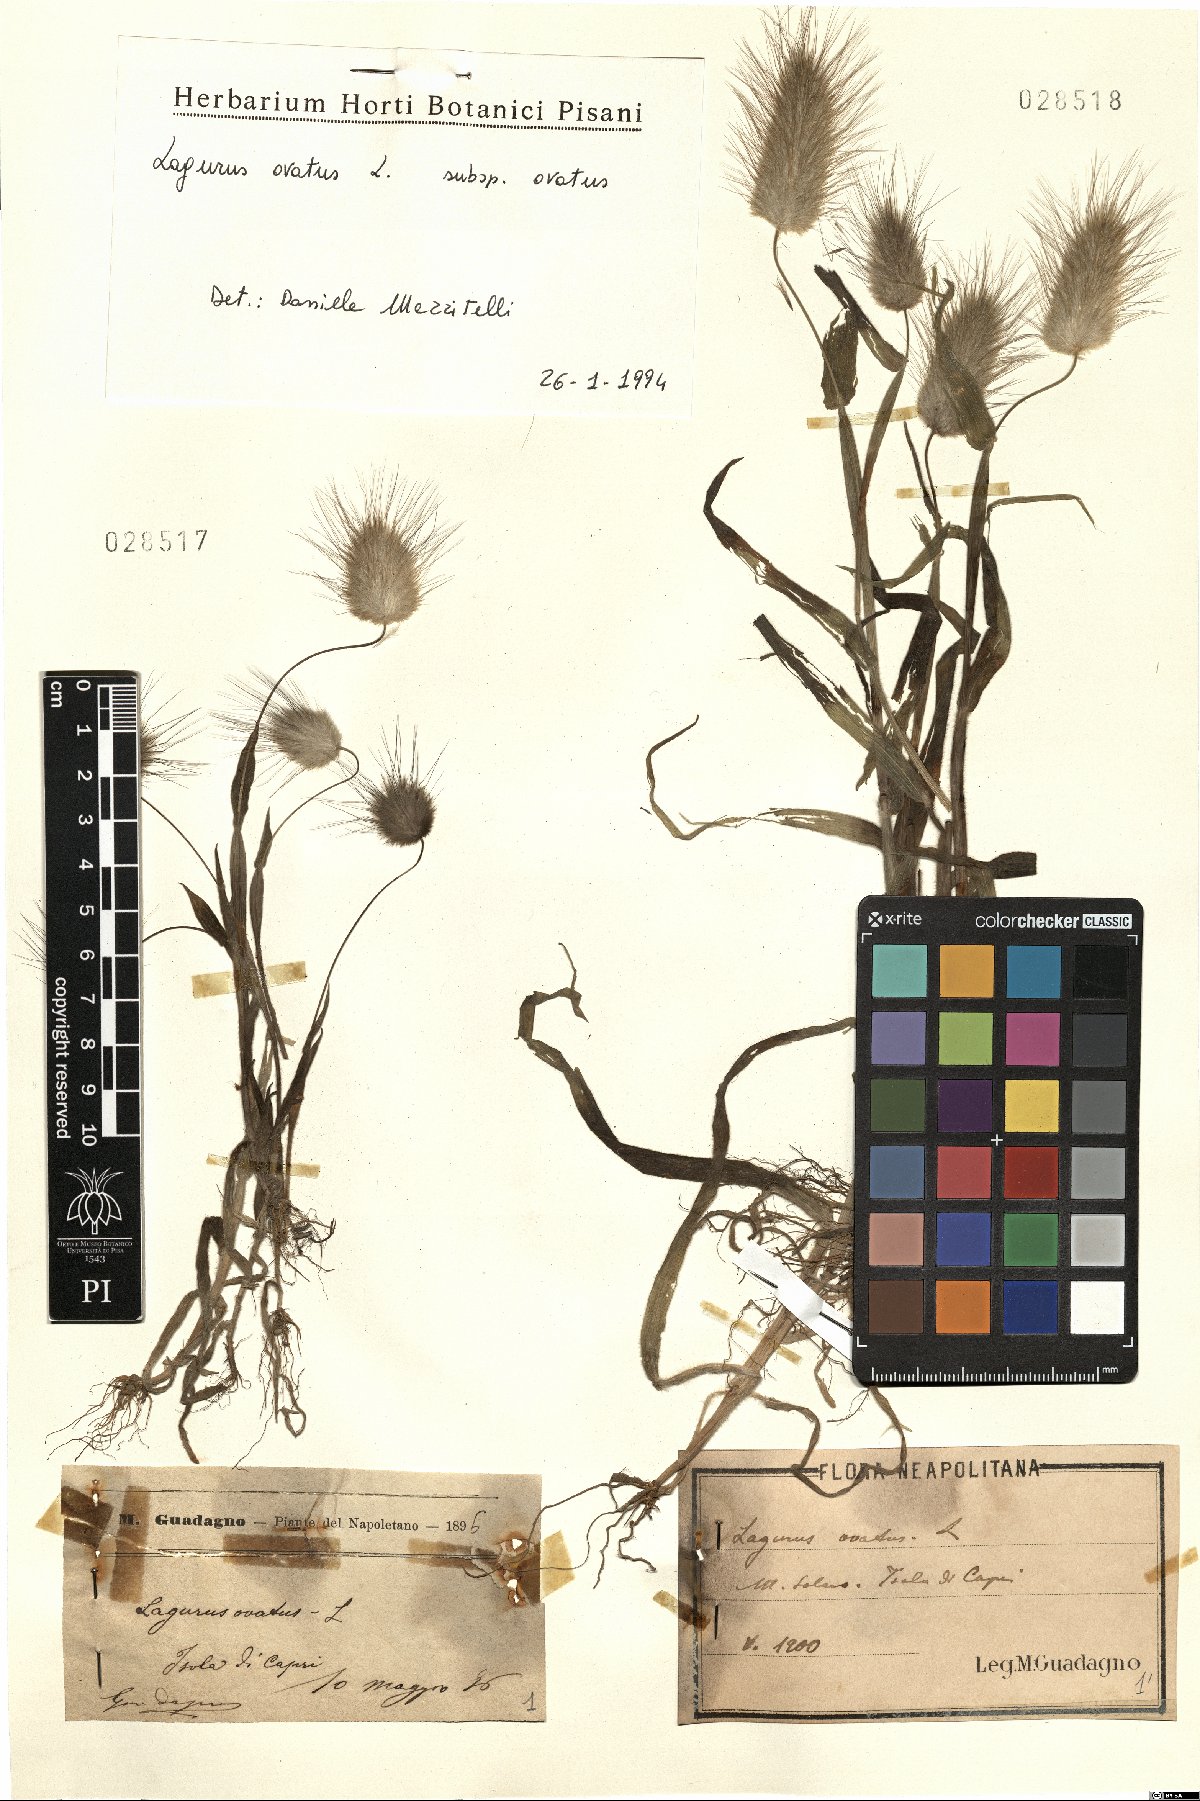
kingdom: Plantae
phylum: Tracheophyta
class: Liliopsida
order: Poales
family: Poaceae
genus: Lagurus
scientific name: Lagurus ovatus
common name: Hare's-tail
